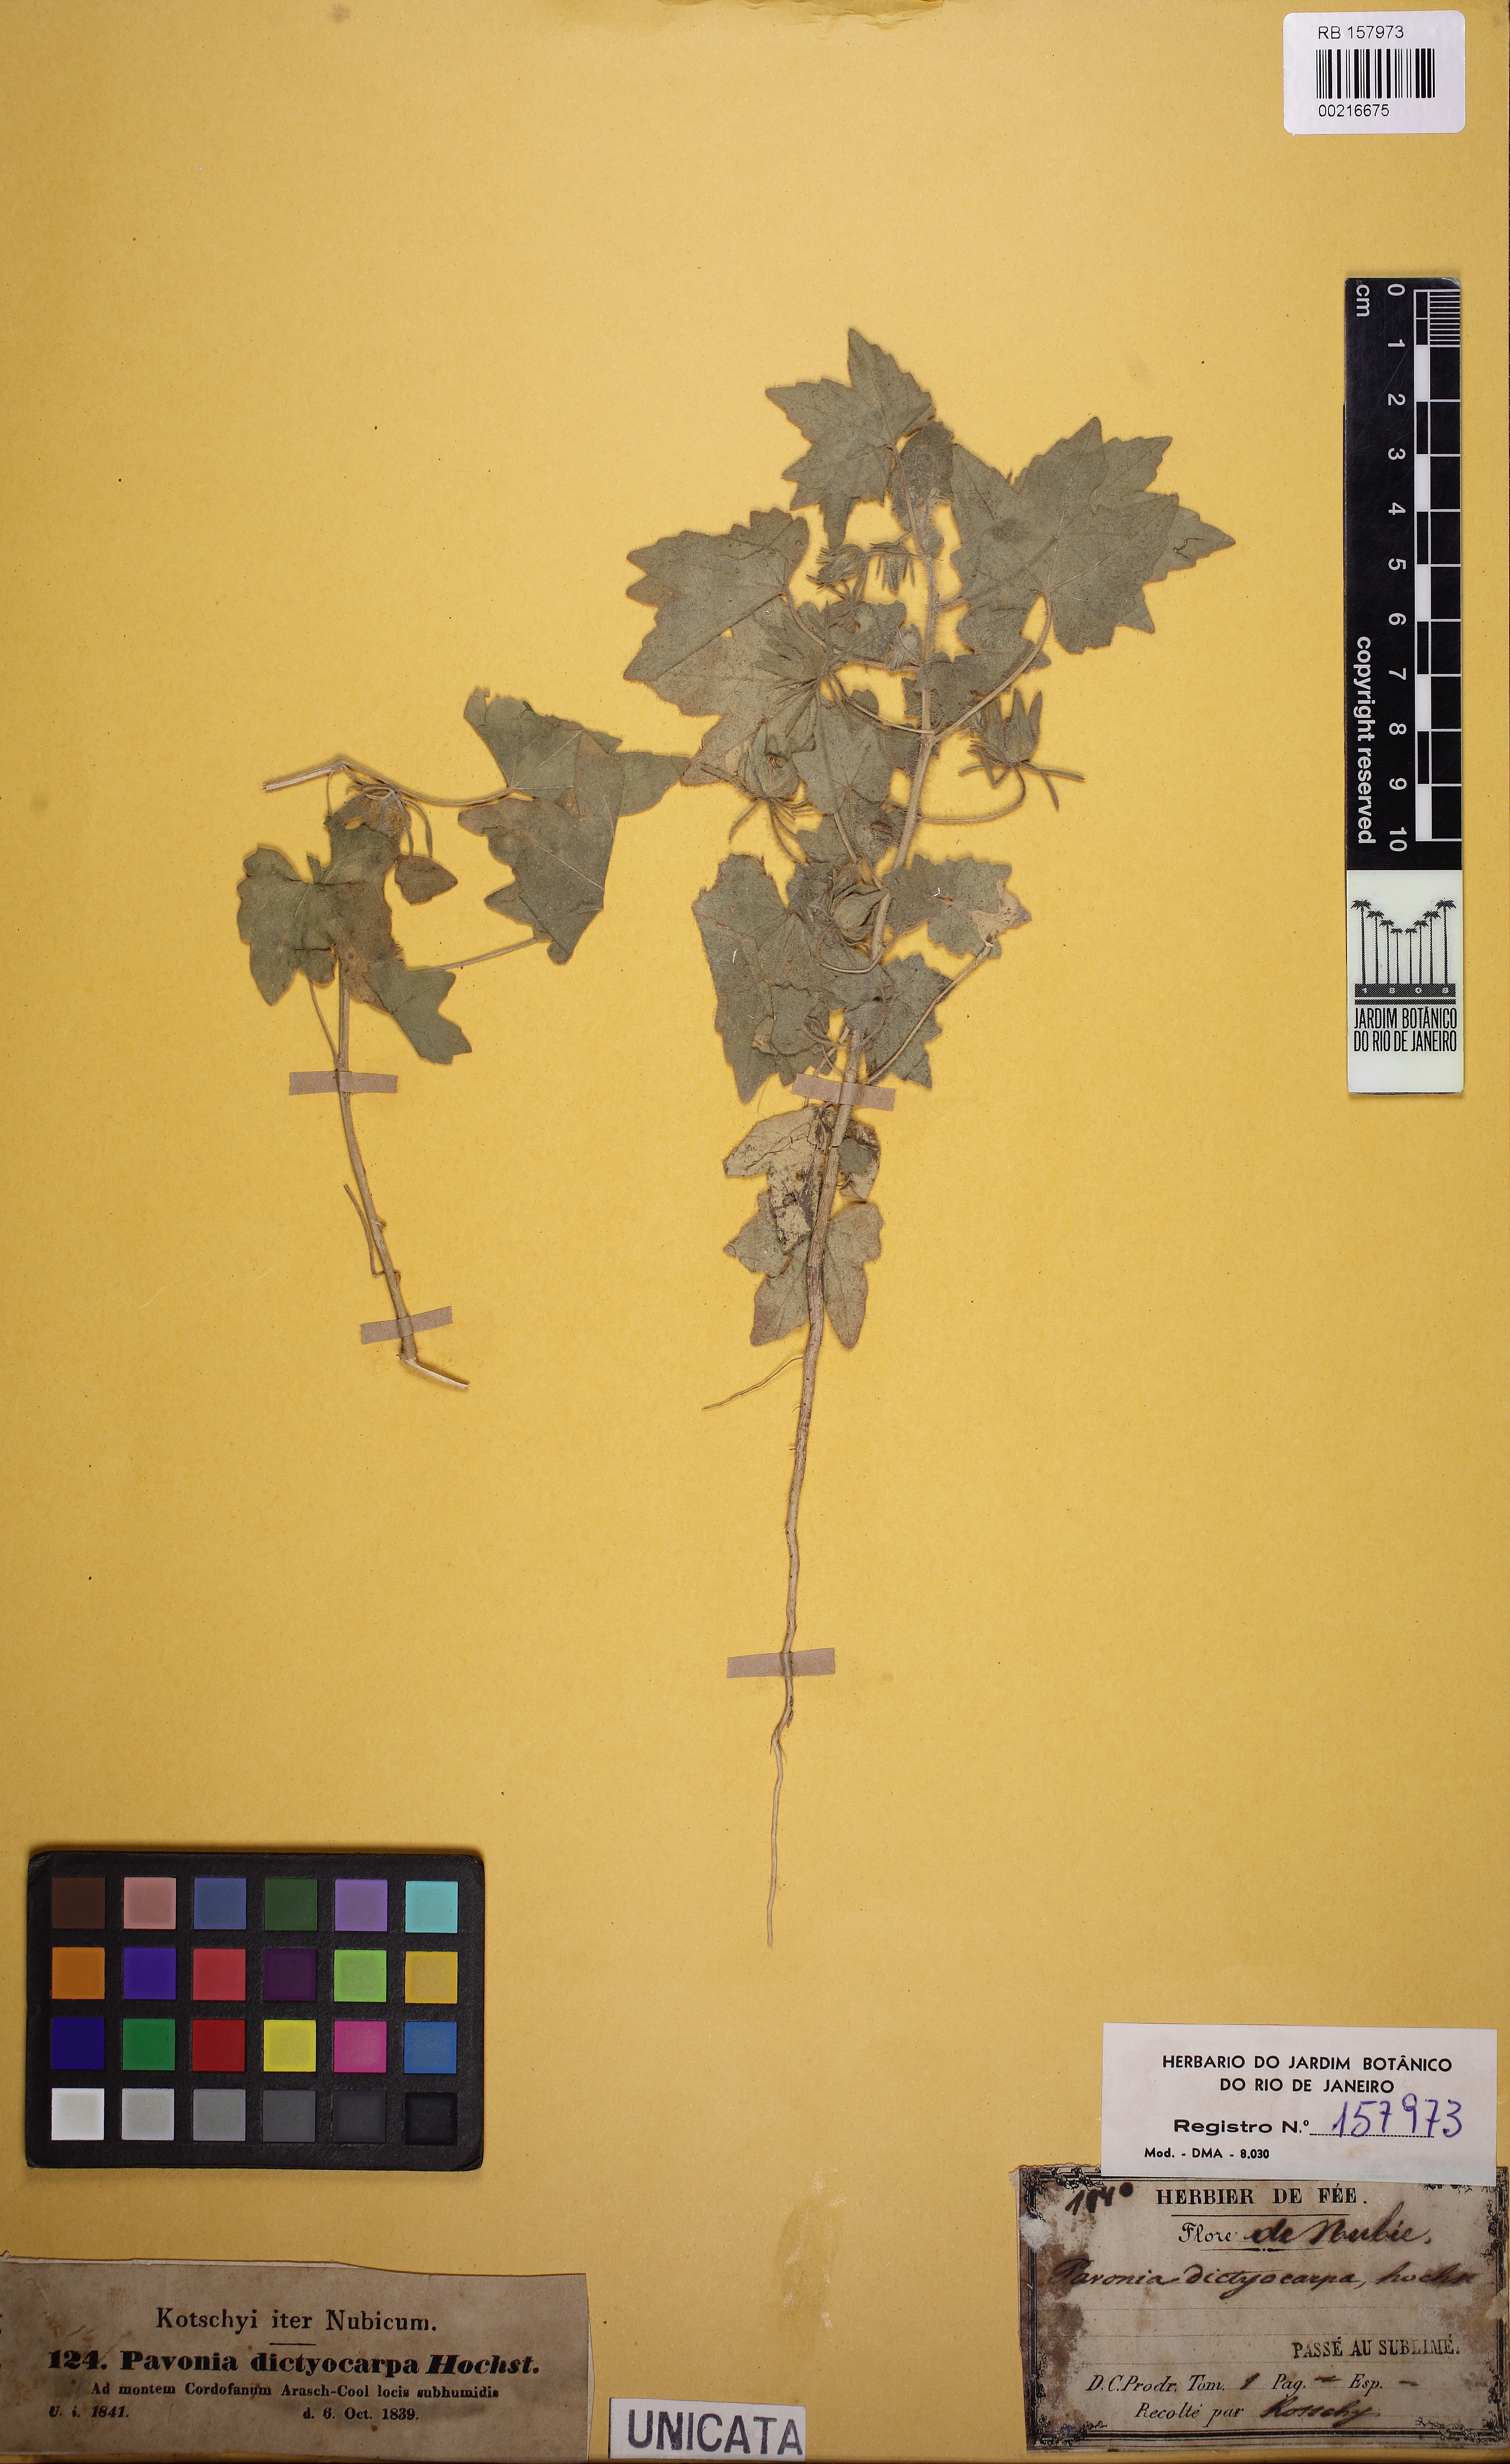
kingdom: Plantae
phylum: Tracheophyta
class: Magnoliopsida
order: Malvales
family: Malvaceae
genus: Roifia
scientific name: Roifia dictyocarpa
